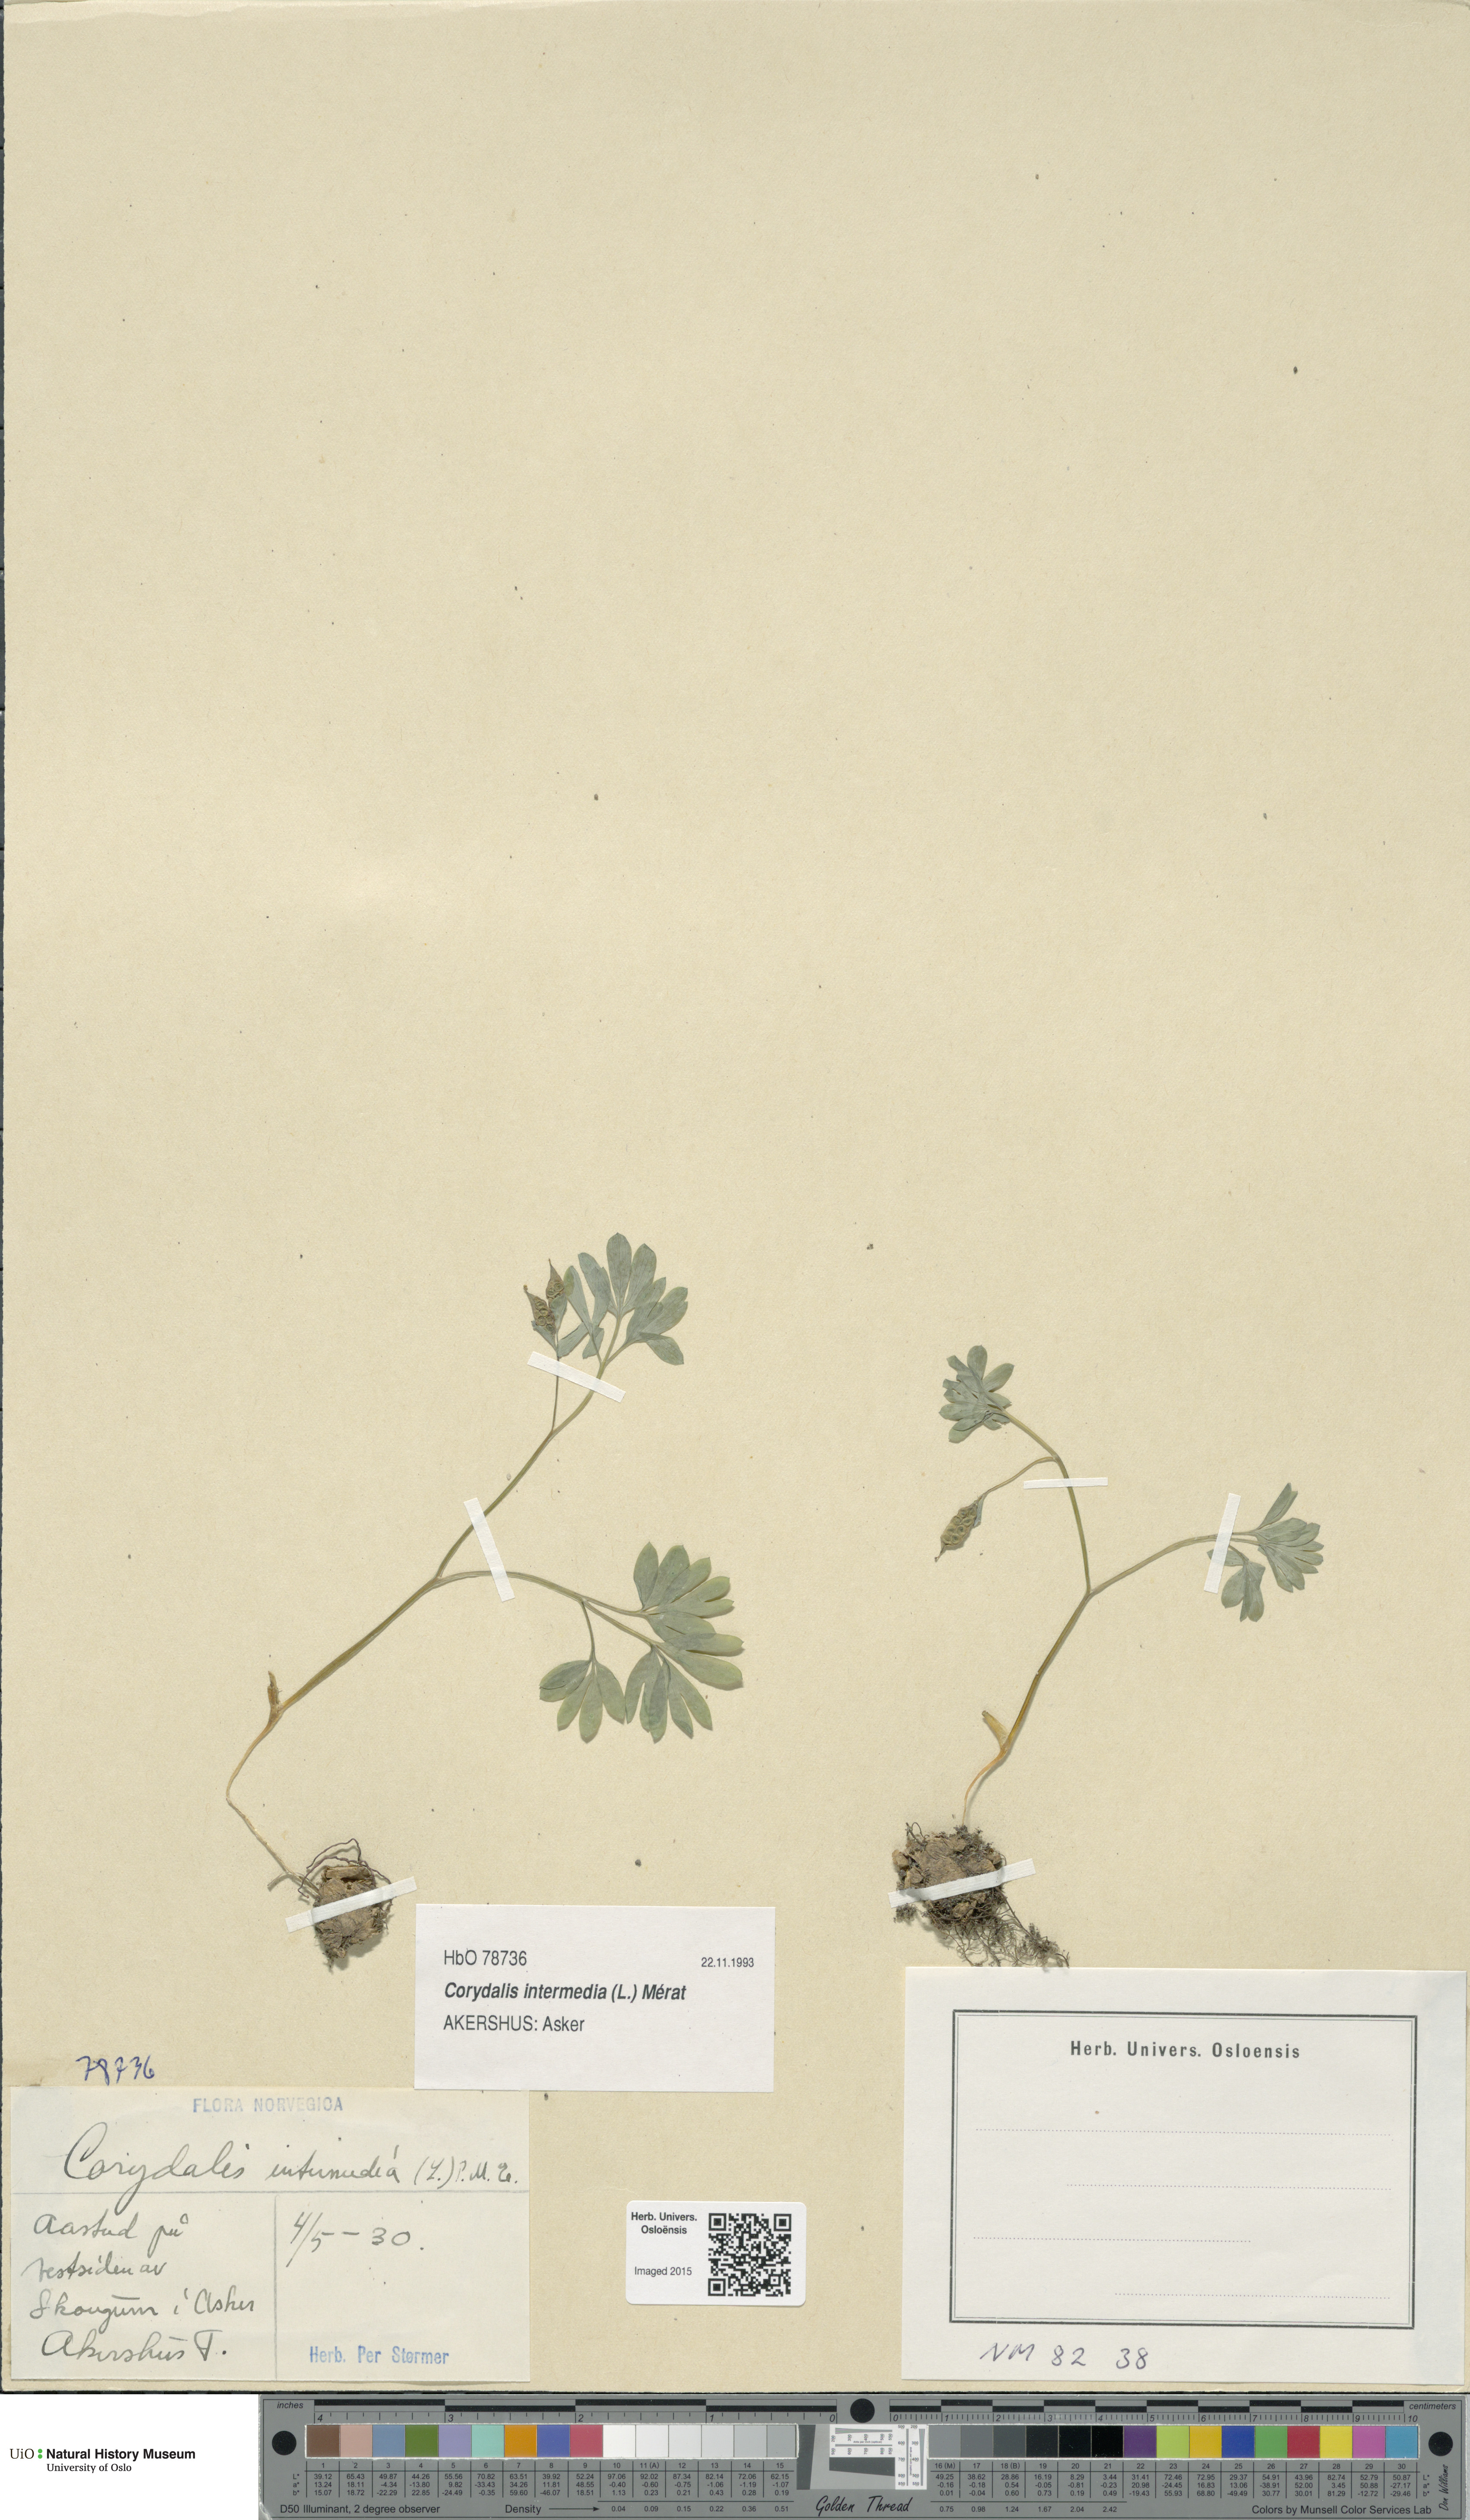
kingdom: Plantae
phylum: Tracheophyta
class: Magnoliopsida
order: Ranunculales
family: Papaveraceae
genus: Corydalis
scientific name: Corydalis intermedia
